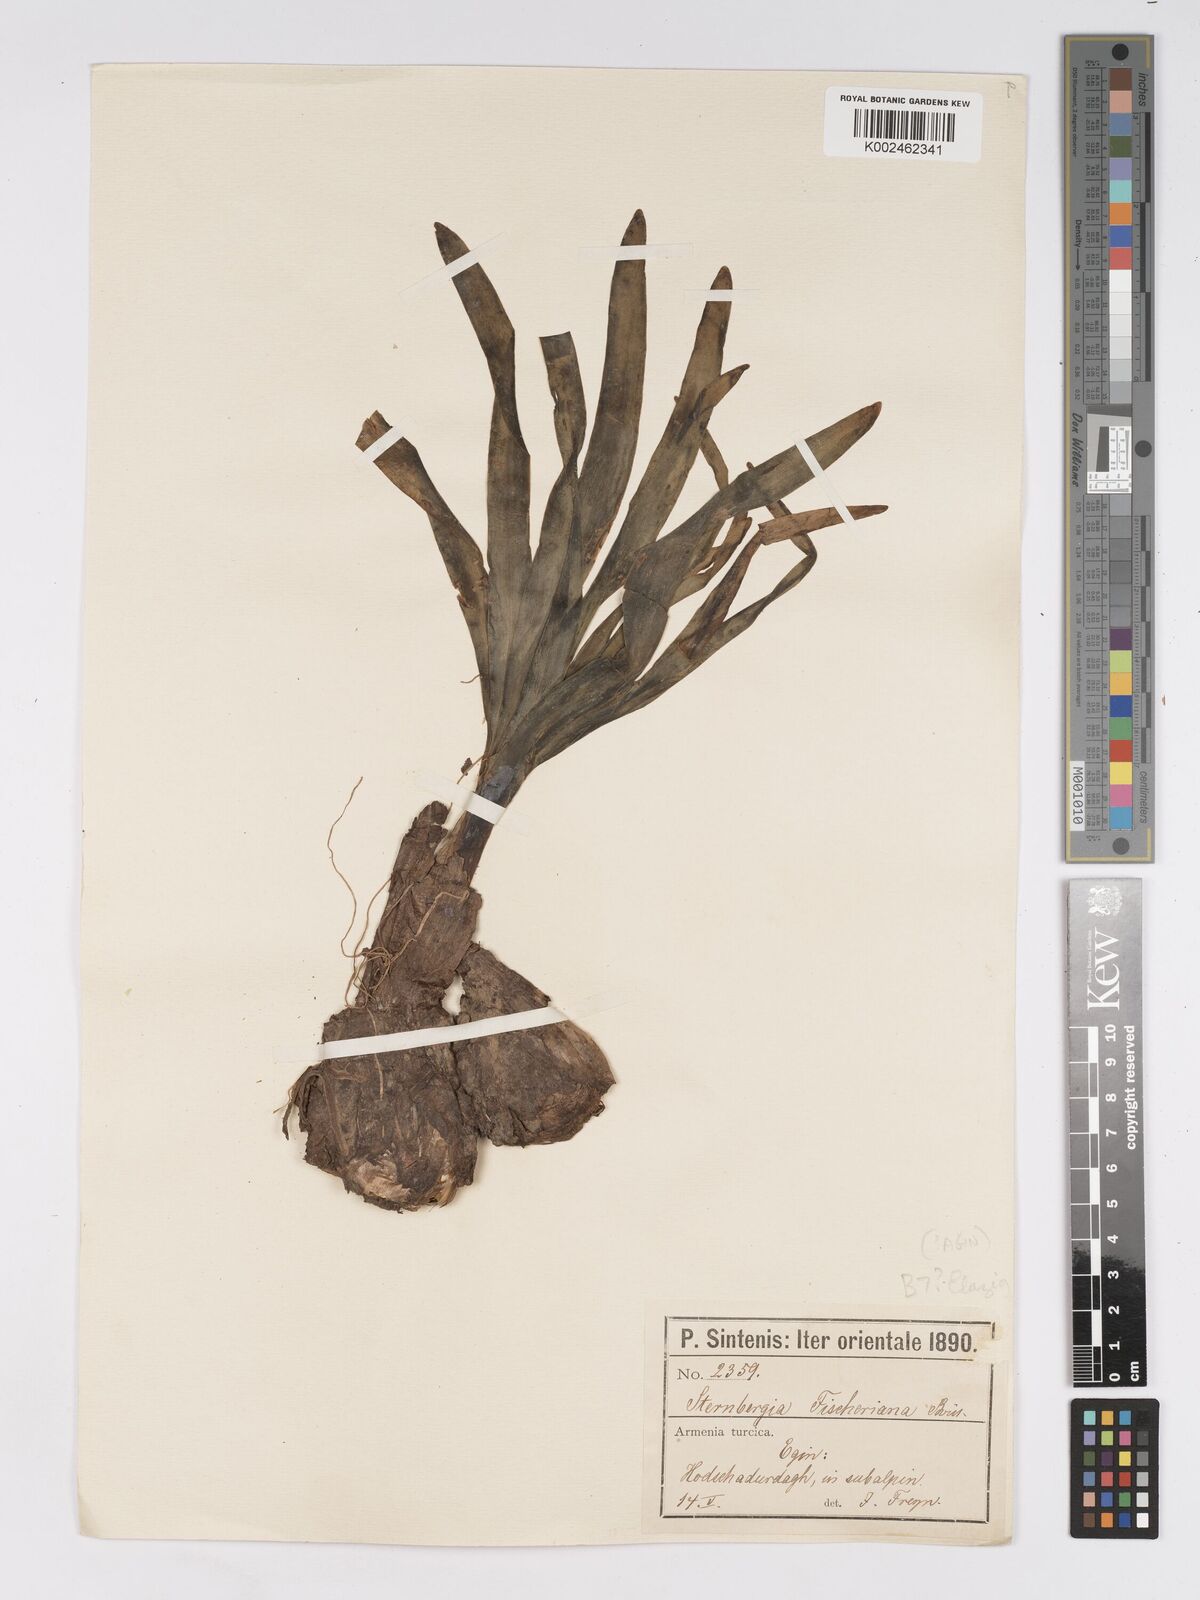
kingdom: Plantae
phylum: Tracheophyta
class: Liliopsida
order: Asparagales
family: Amaryllidaceae
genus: Sternbergia
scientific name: Sternbergia clusiana
